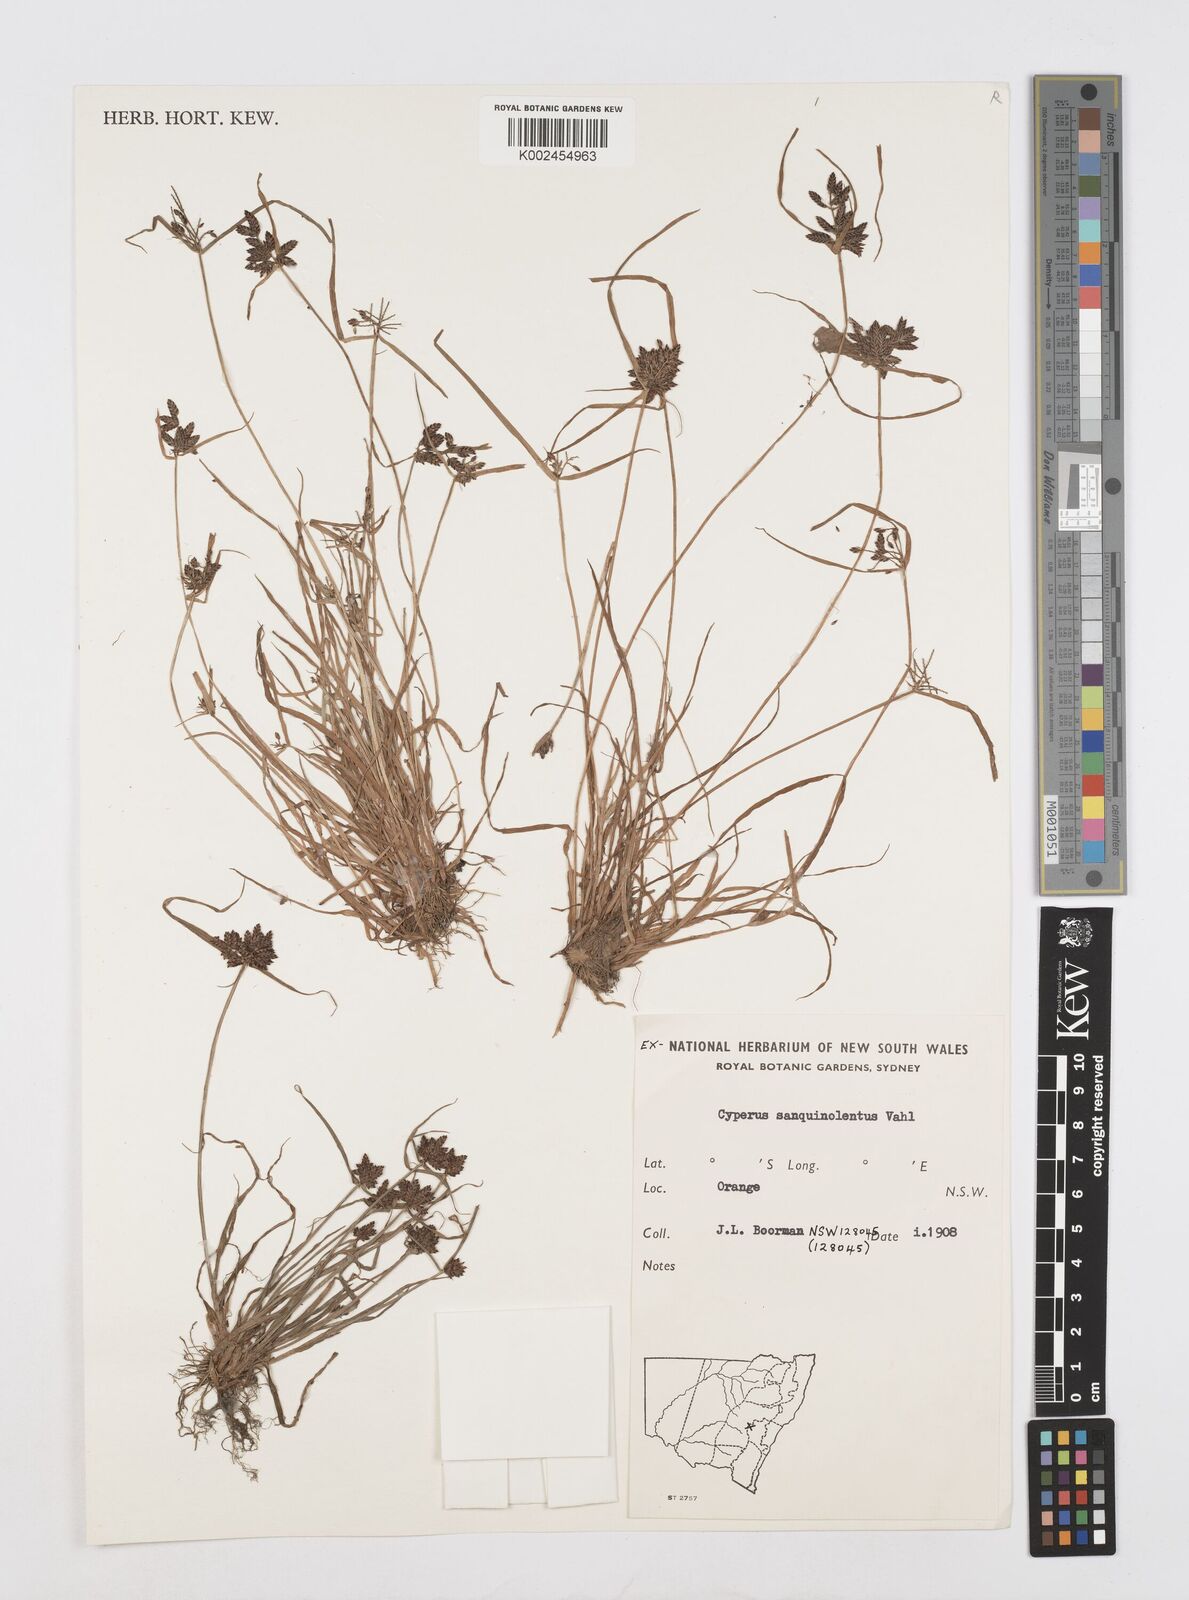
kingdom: Plantae
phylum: Tracheophyta
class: Liliopsida
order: Poales
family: Cyperaceae
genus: Cyperus
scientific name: Cyperus sanguinolentus
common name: Purpleglume flatsedge
